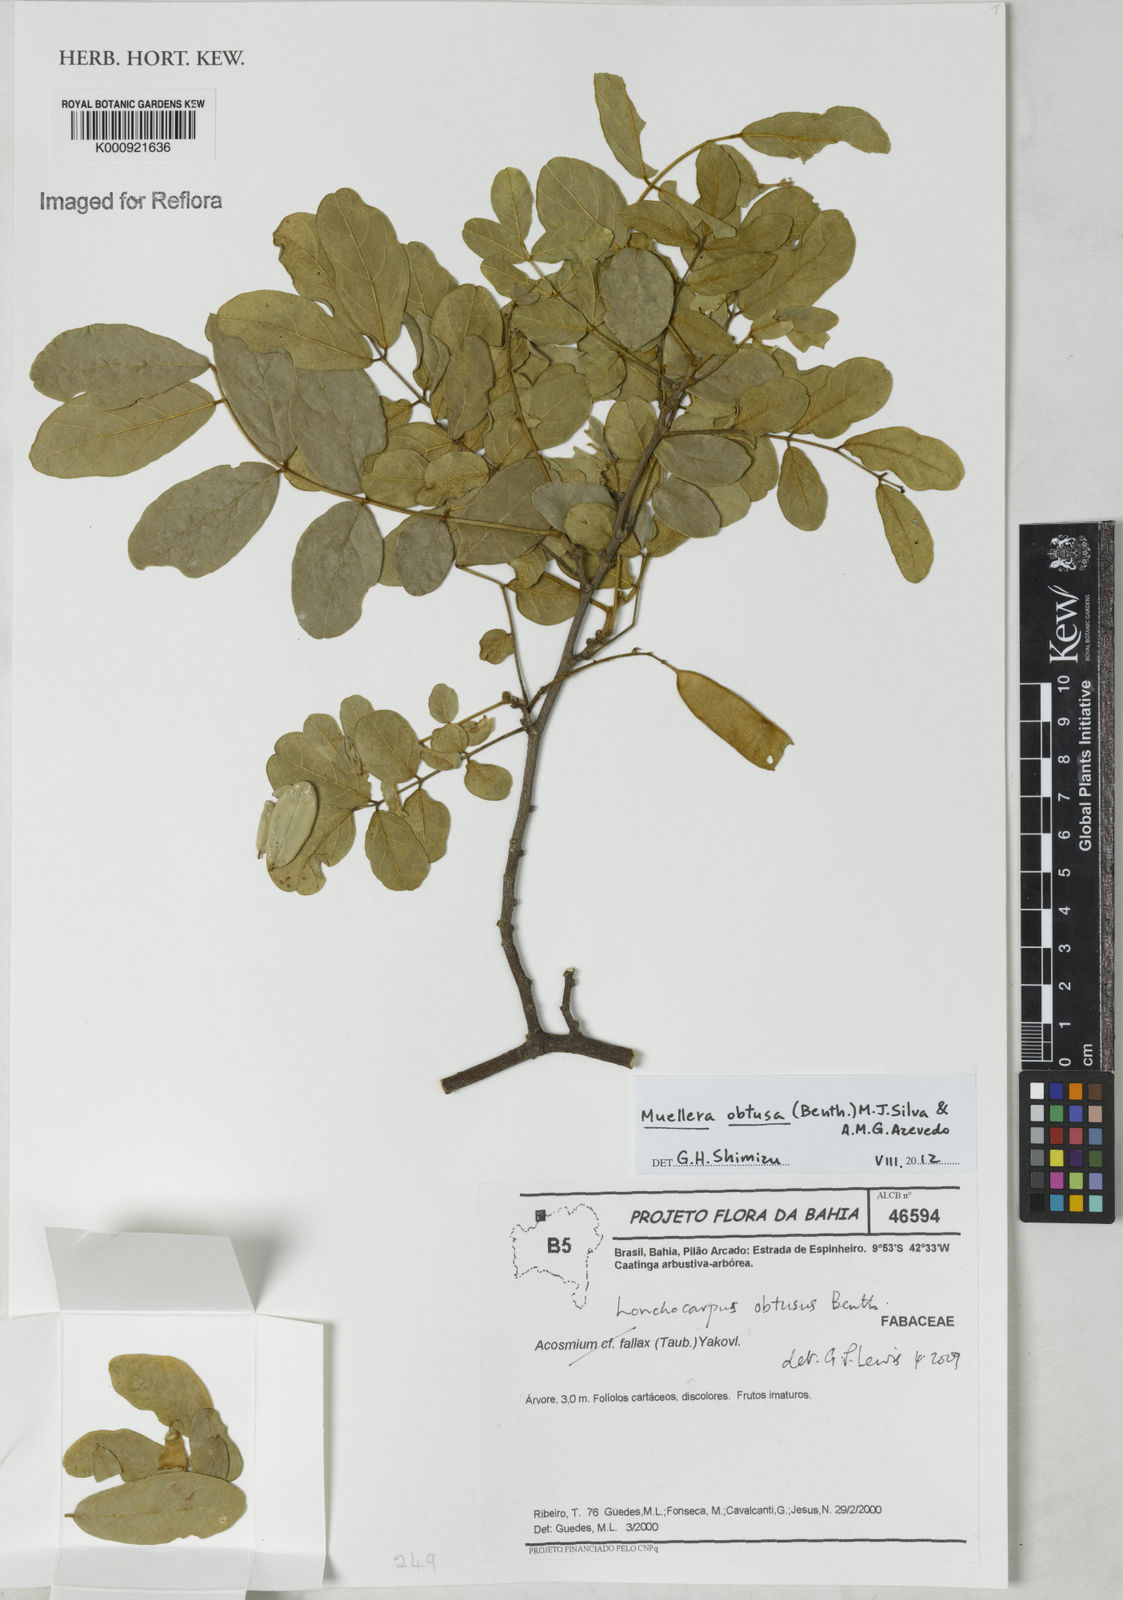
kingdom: Plantae
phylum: Tracheophyta
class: Magnoliopsida
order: Fabales
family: Fabaceae
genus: Muellera
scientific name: Muellera obtusa
